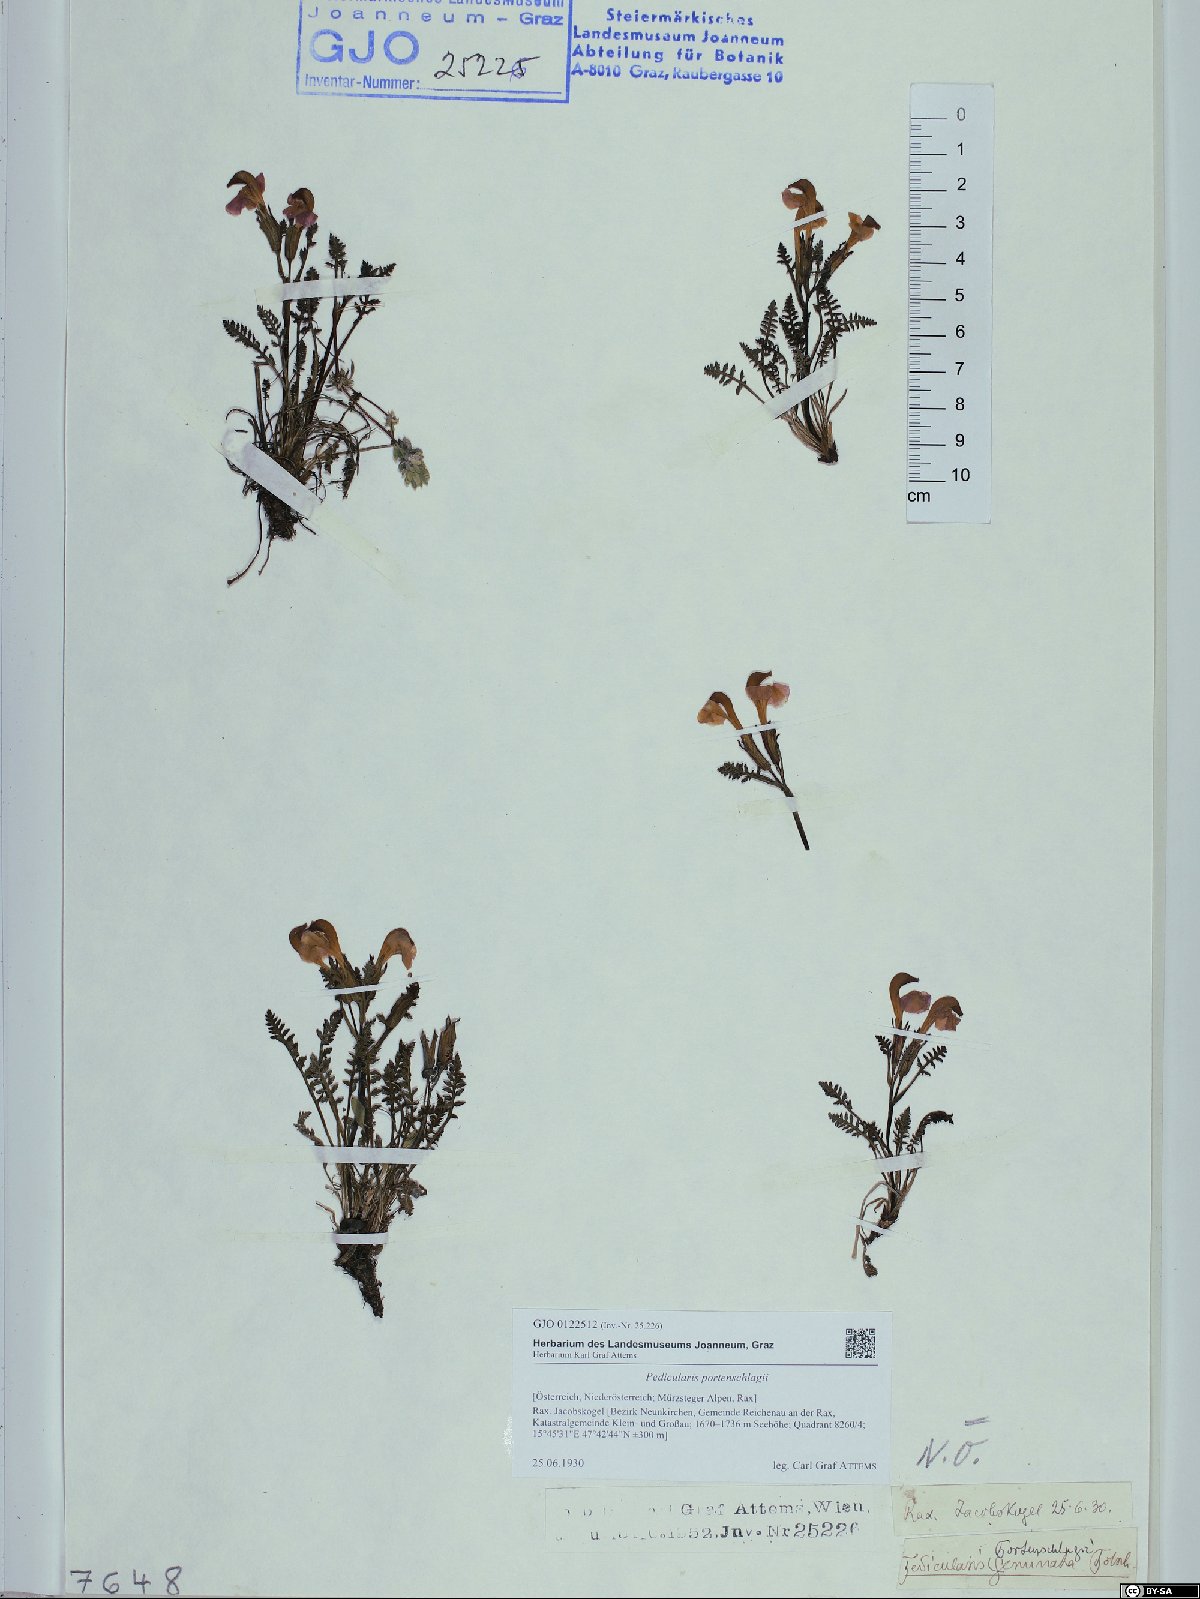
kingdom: Plantae
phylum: Tracheophyta
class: Magnoliopsida
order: Lamiales
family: Orobanchaceae
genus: Pedicularis
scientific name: Pedicularis portenschlagii
